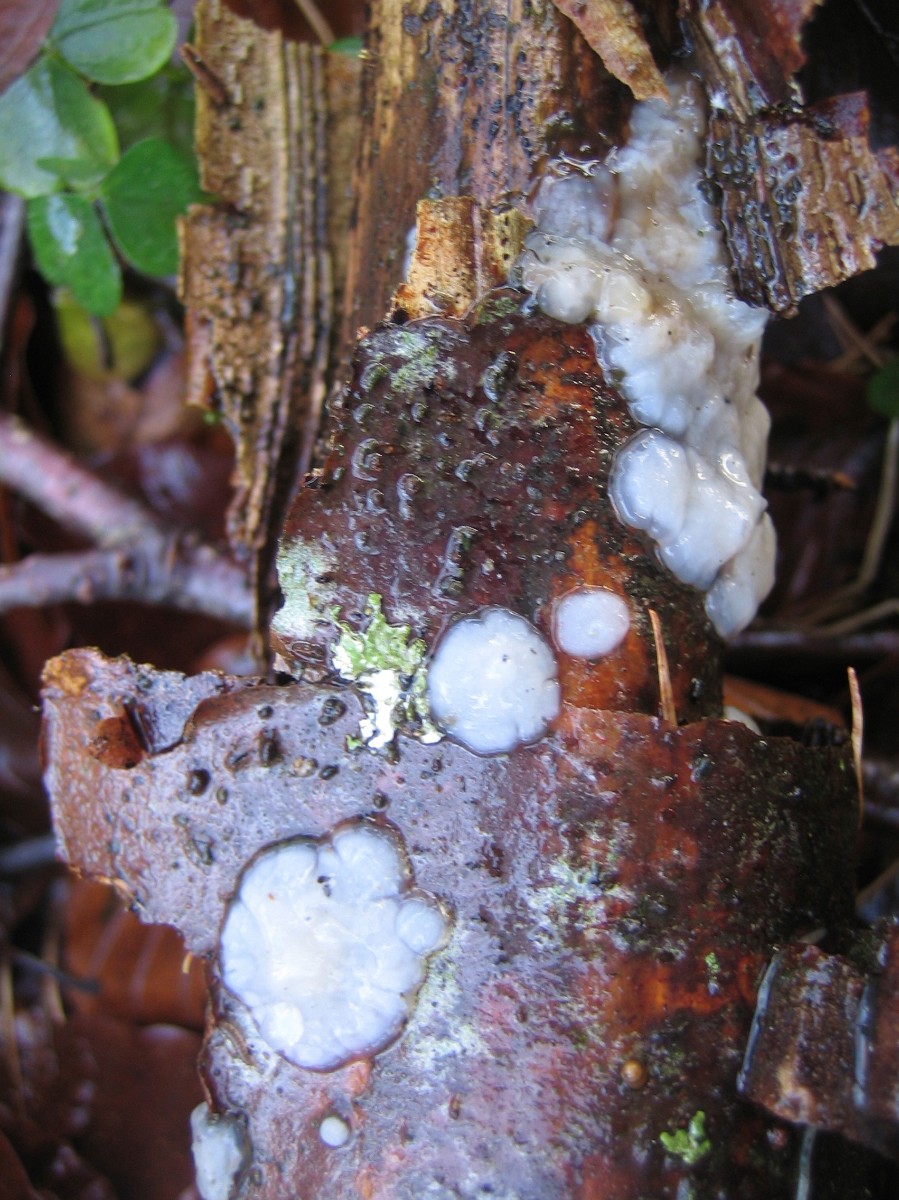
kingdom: Fungi
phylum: Basidiomycota
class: Agaricomycetes
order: Auriculariales
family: Auriculariaceae
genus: Exidia
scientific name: Exidia thuretiana
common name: hvidlig bævretop
